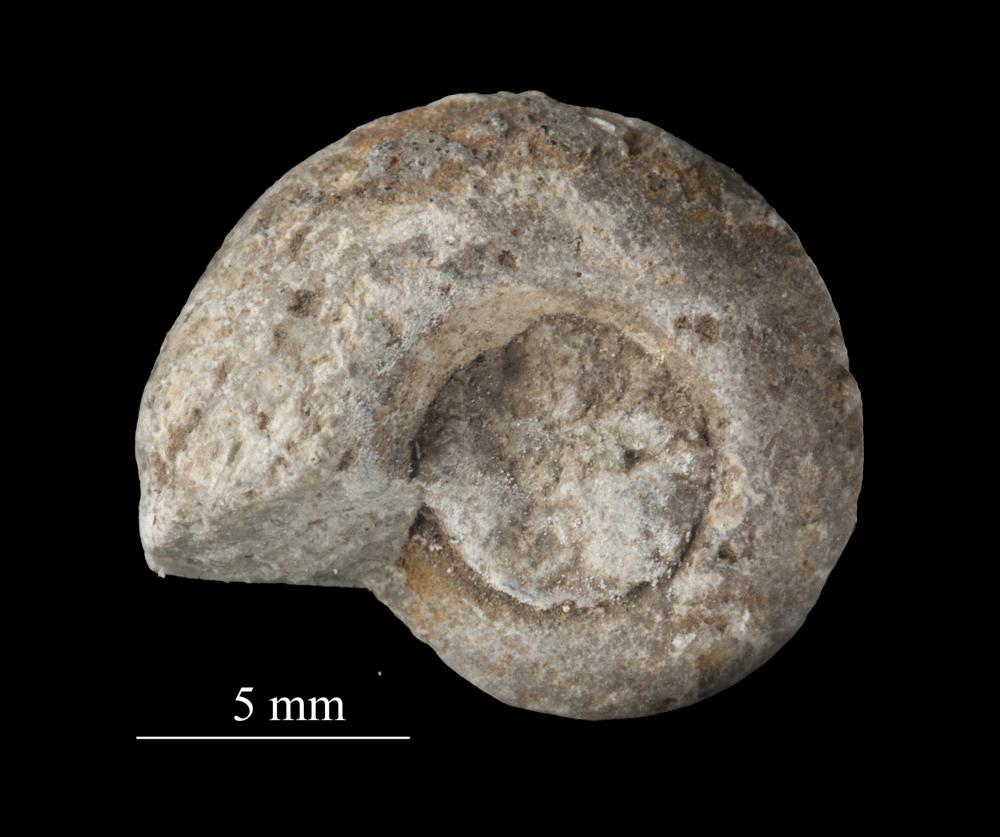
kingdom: Animalia
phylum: Mollusca
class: Cephalopoda
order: Goniatitida
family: Goniatitidae
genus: Goniatites
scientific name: Goniatites silurica
